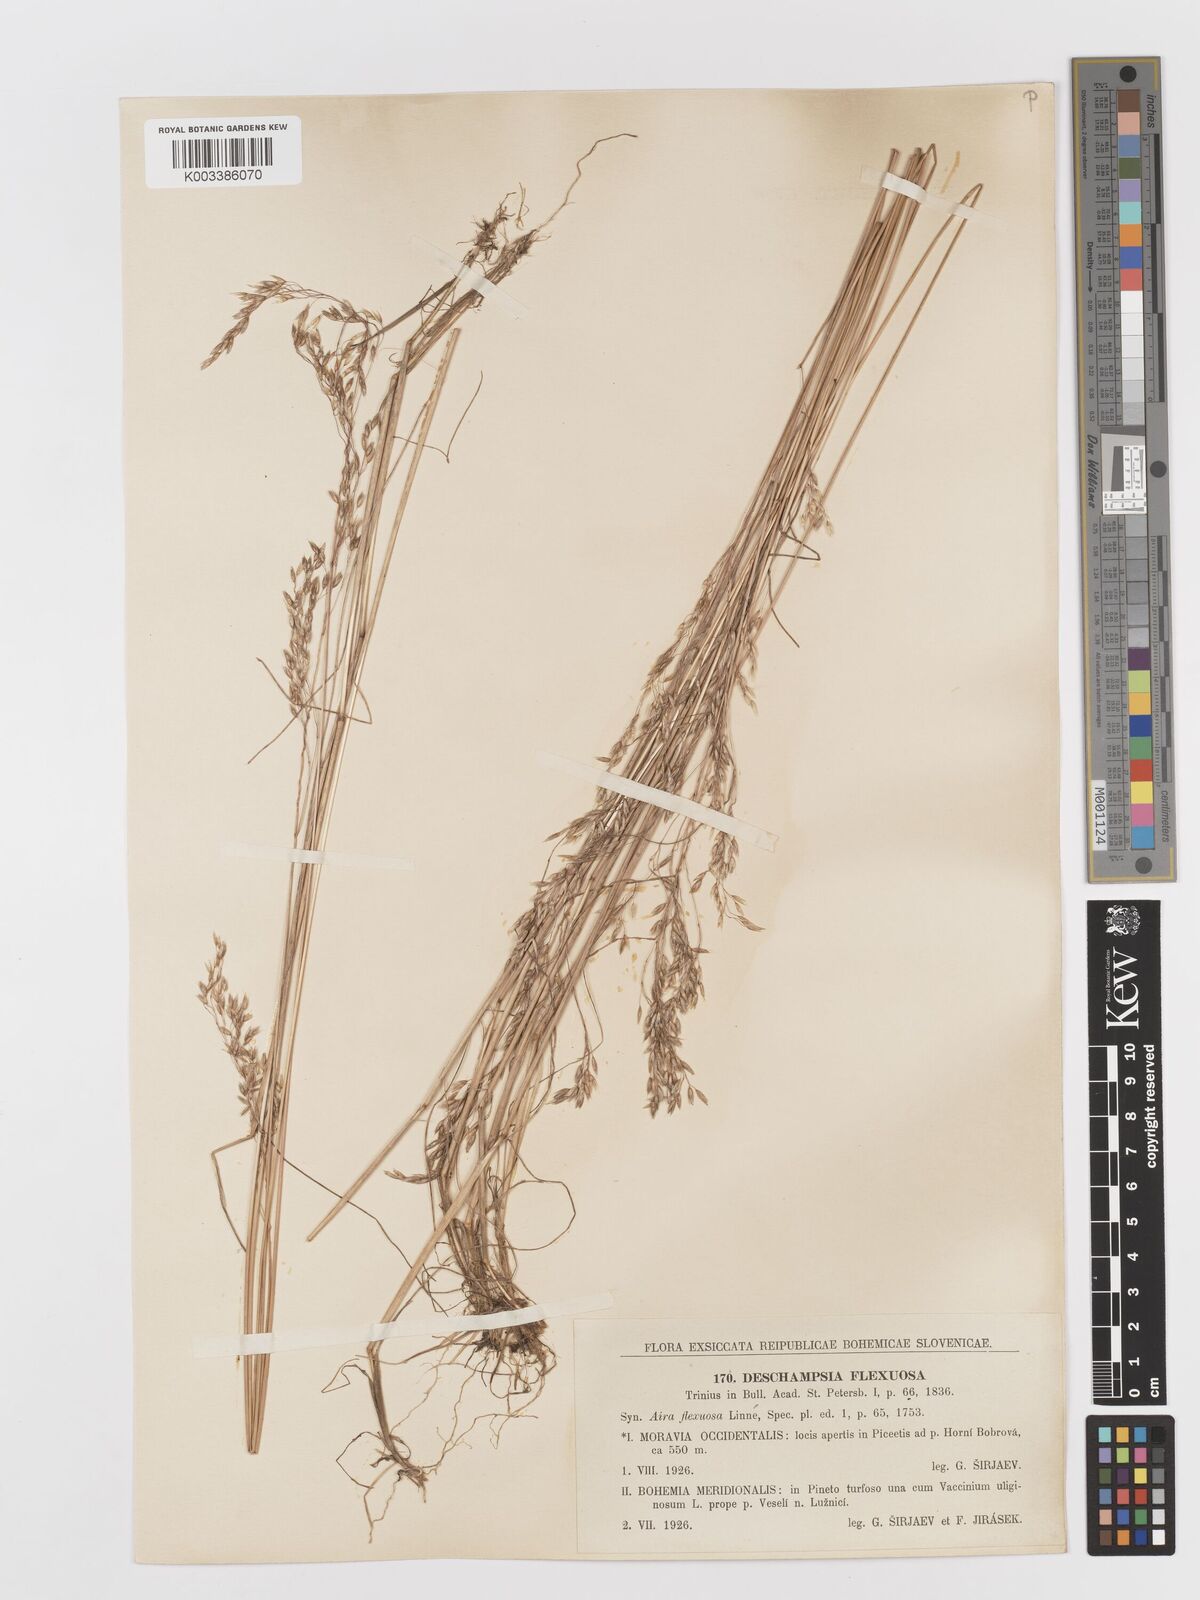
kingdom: Plantae
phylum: Tracheophyta
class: Liliopsida
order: Poales
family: Poaceae
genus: Avenella
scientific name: Avenella flexuosa
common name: Wavy hairgrass
